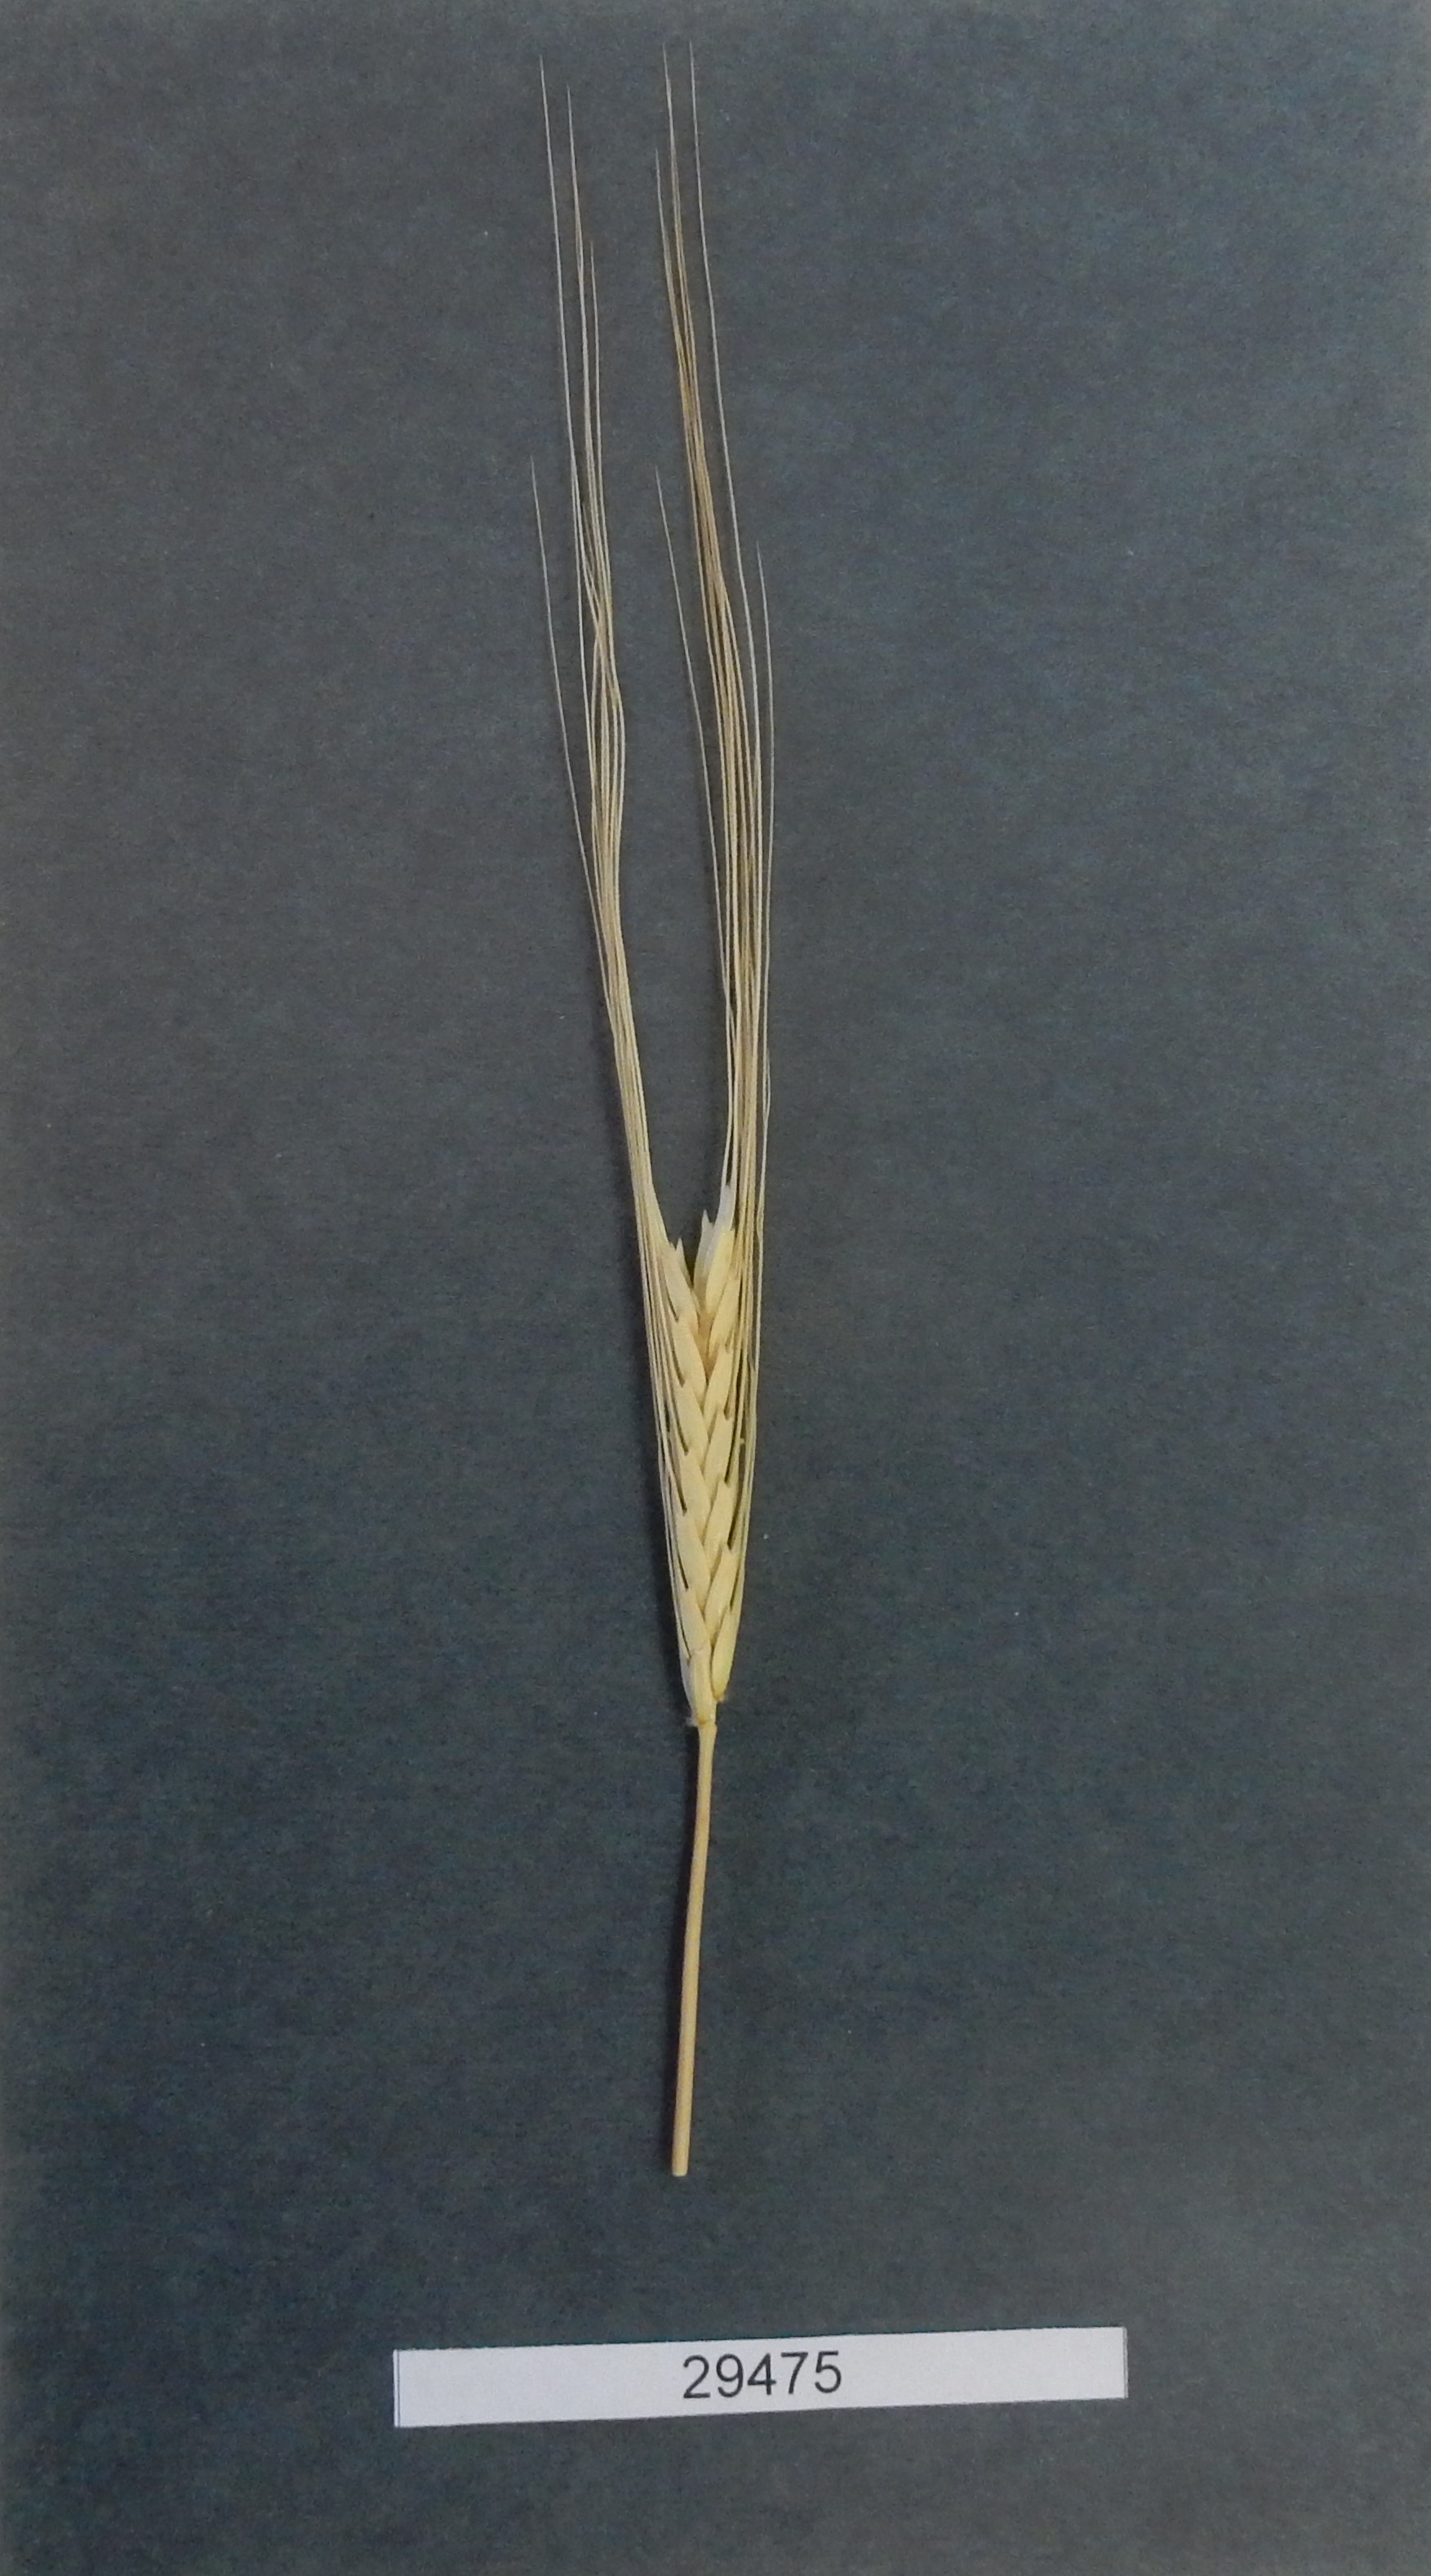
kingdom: Plantae
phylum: Tracheophyta
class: Liliopsida
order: Poales
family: Poaceae
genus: Triticum
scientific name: Triticum monococcum
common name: Wheat
